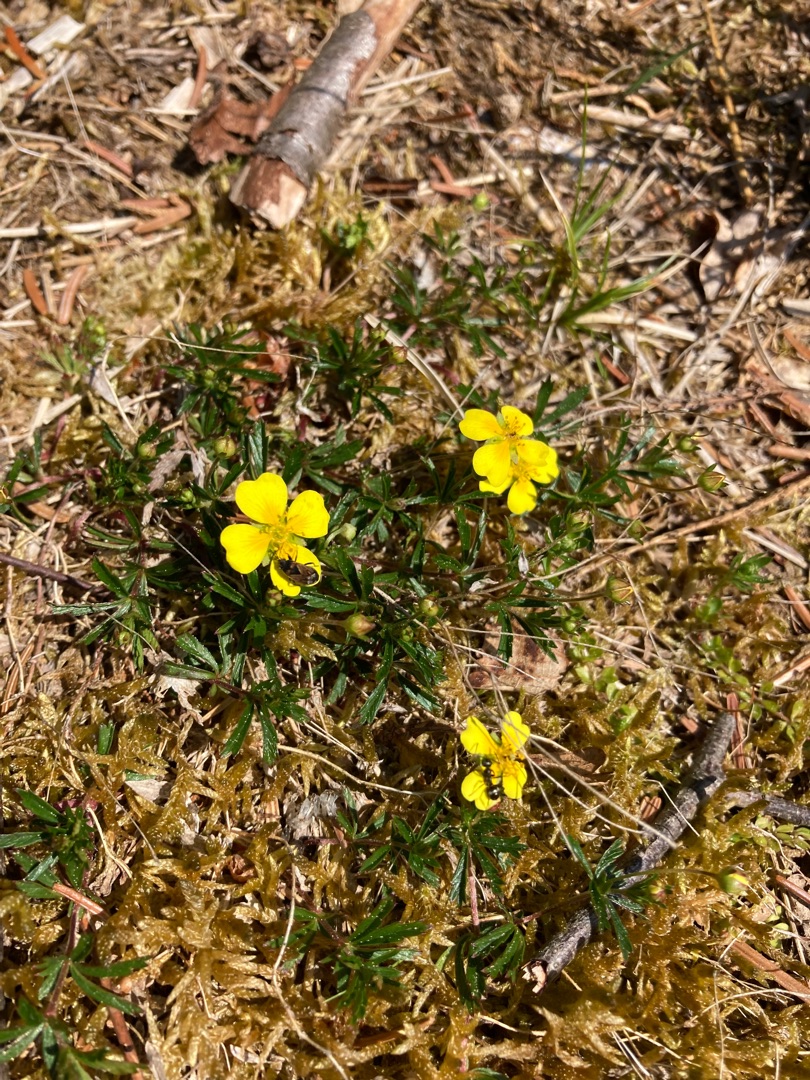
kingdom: Plantae
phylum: Tracheophyta
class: Magnoliopsida
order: Rosales
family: Rosaceae
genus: Potentilla
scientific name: Potentilla erecta
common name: Tormentil
